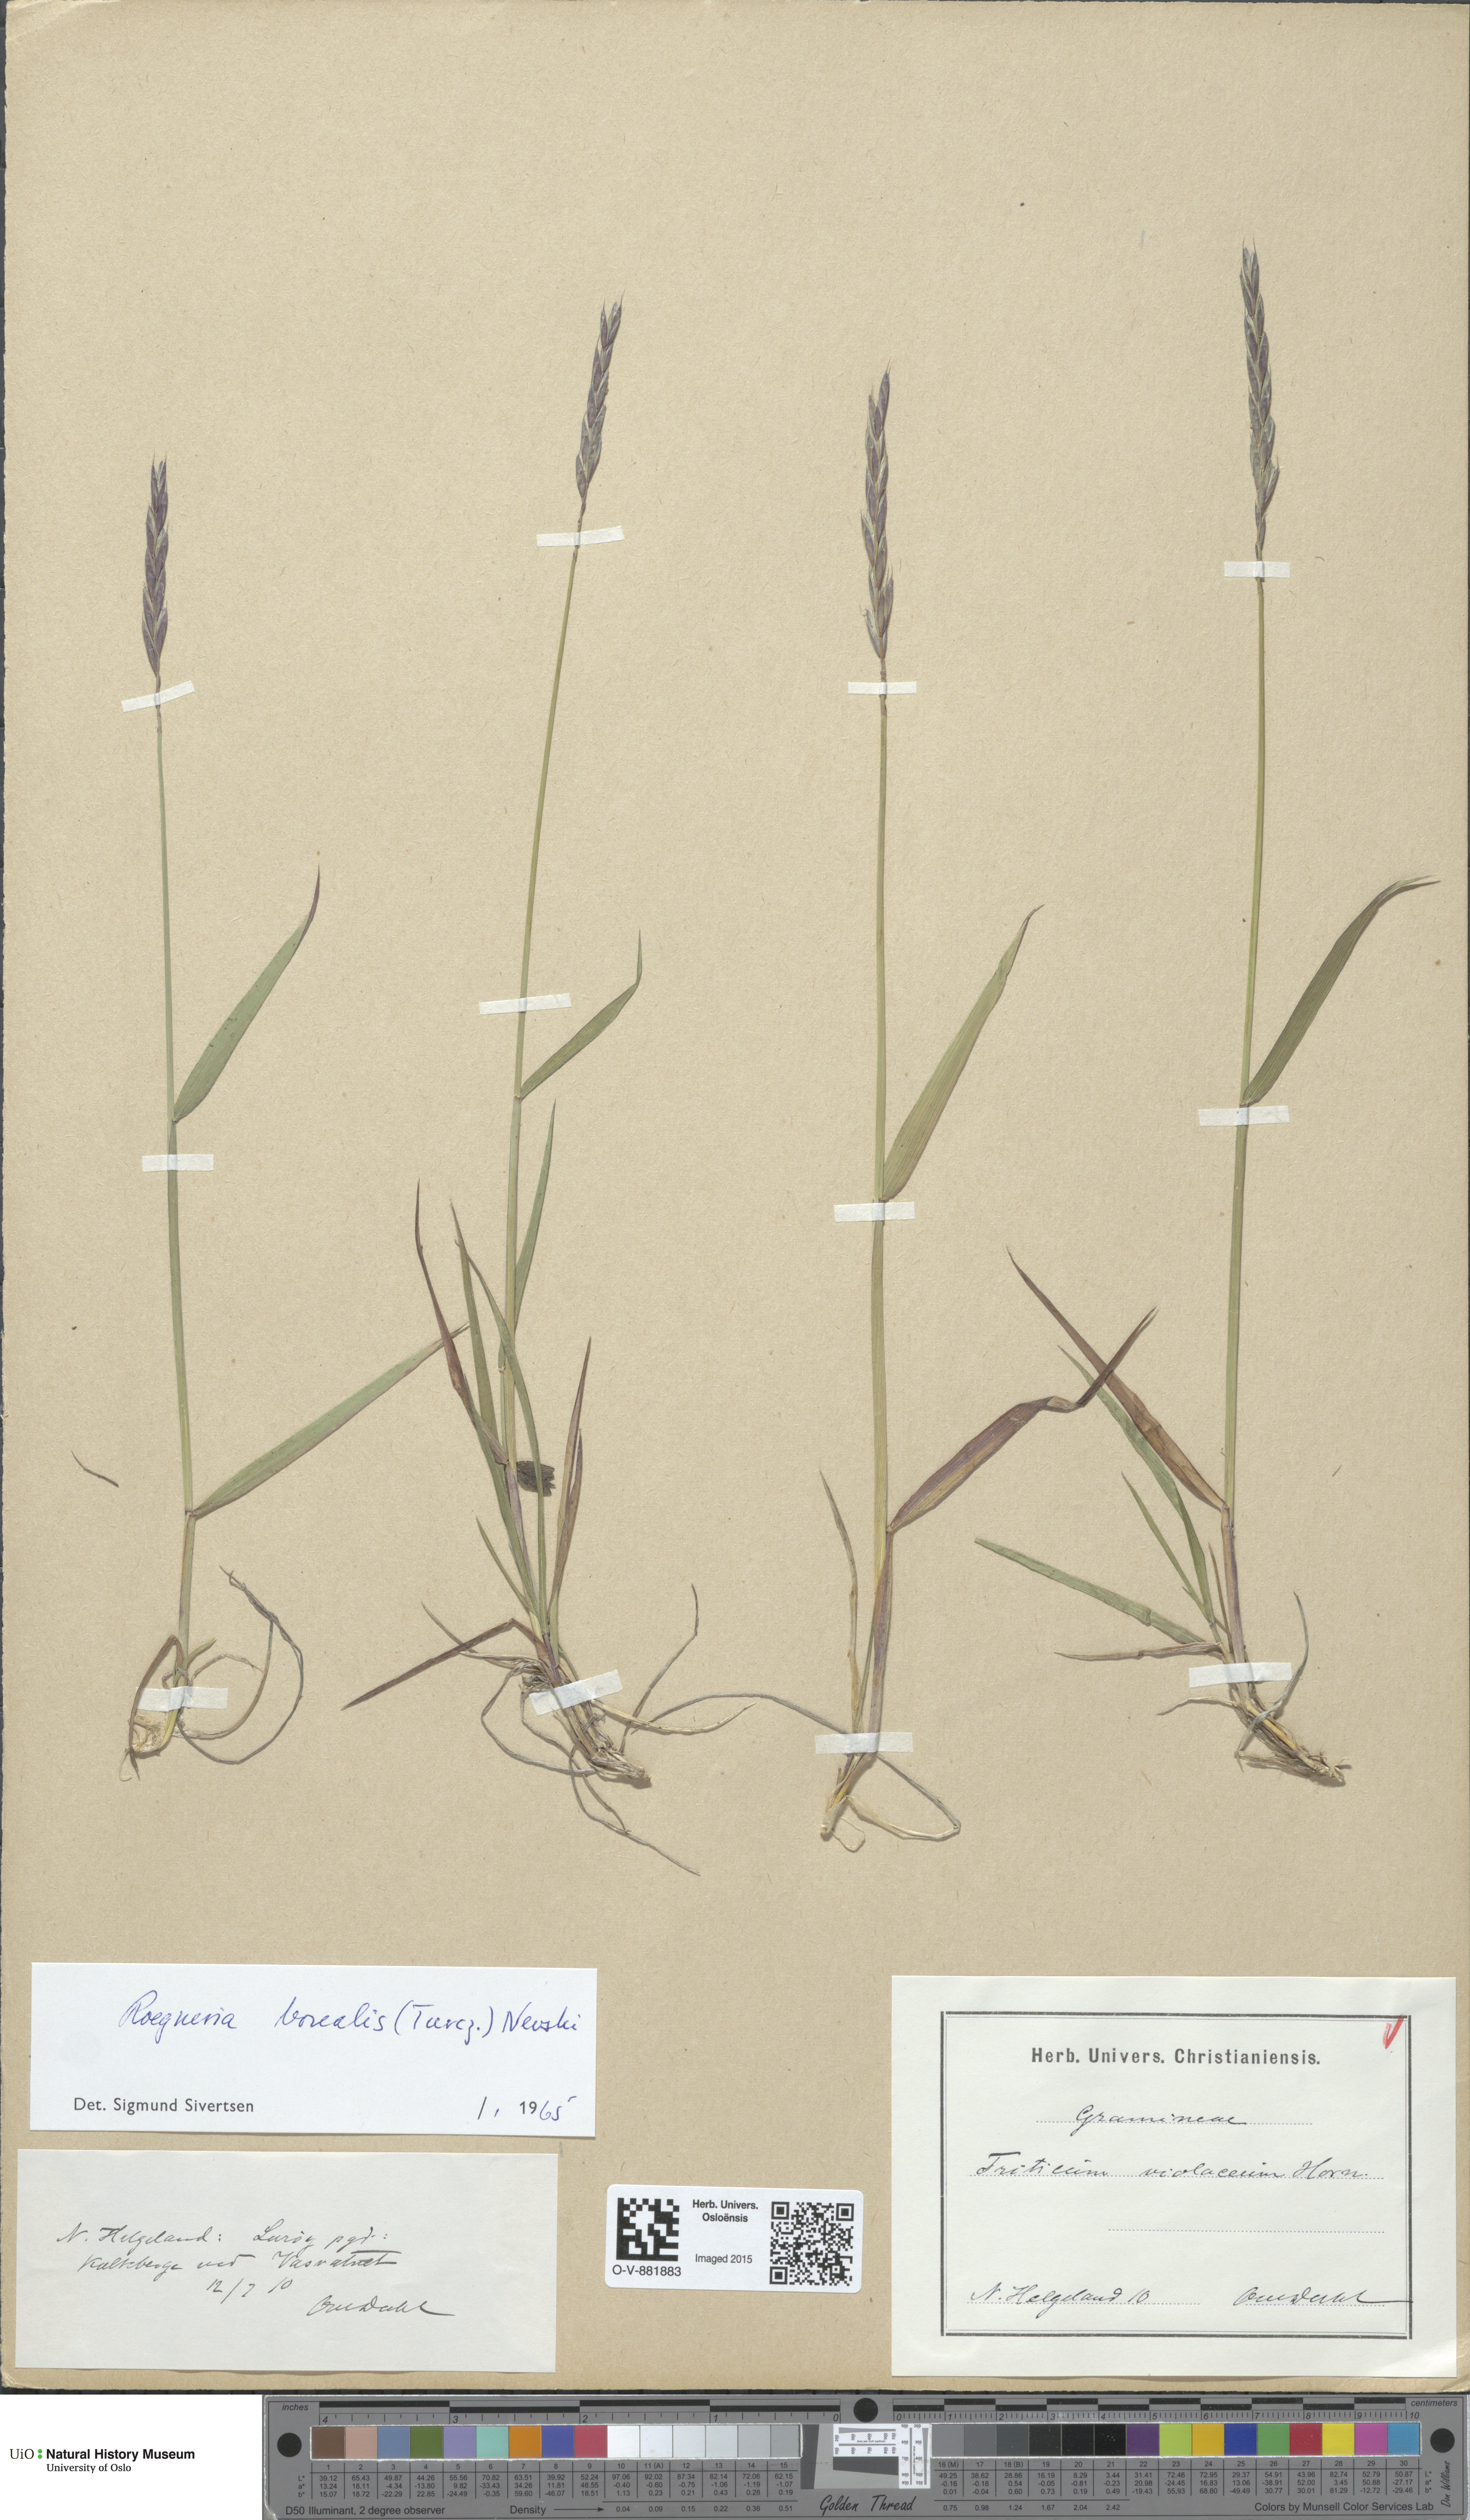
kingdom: Plantae
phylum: Tracheophyta
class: Liliopsida
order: Poales
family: Poaceae
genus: Elymus
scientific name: Elymus macrourus
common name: Northern wheatgrass
